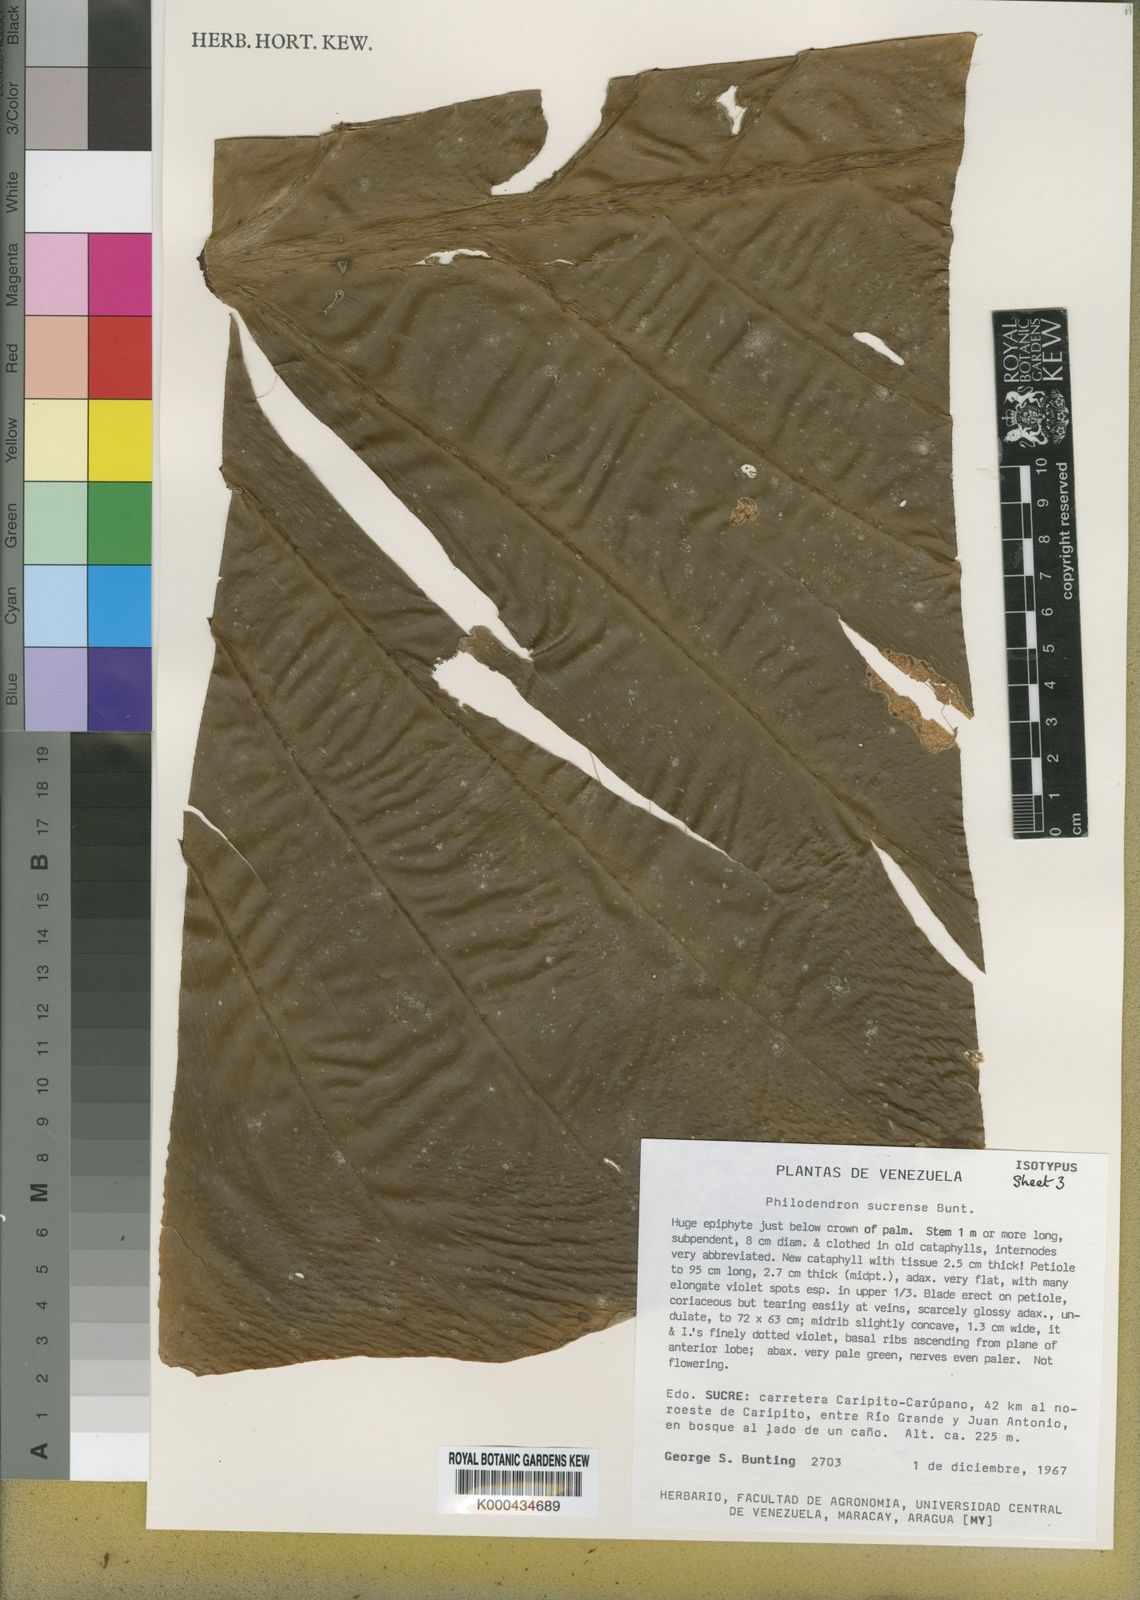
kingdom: Plantae
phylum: Tracheophyta
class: Liliopsida
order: Alismatales
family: Araceae
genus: Philodendron
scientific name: Philodendron sucrense
